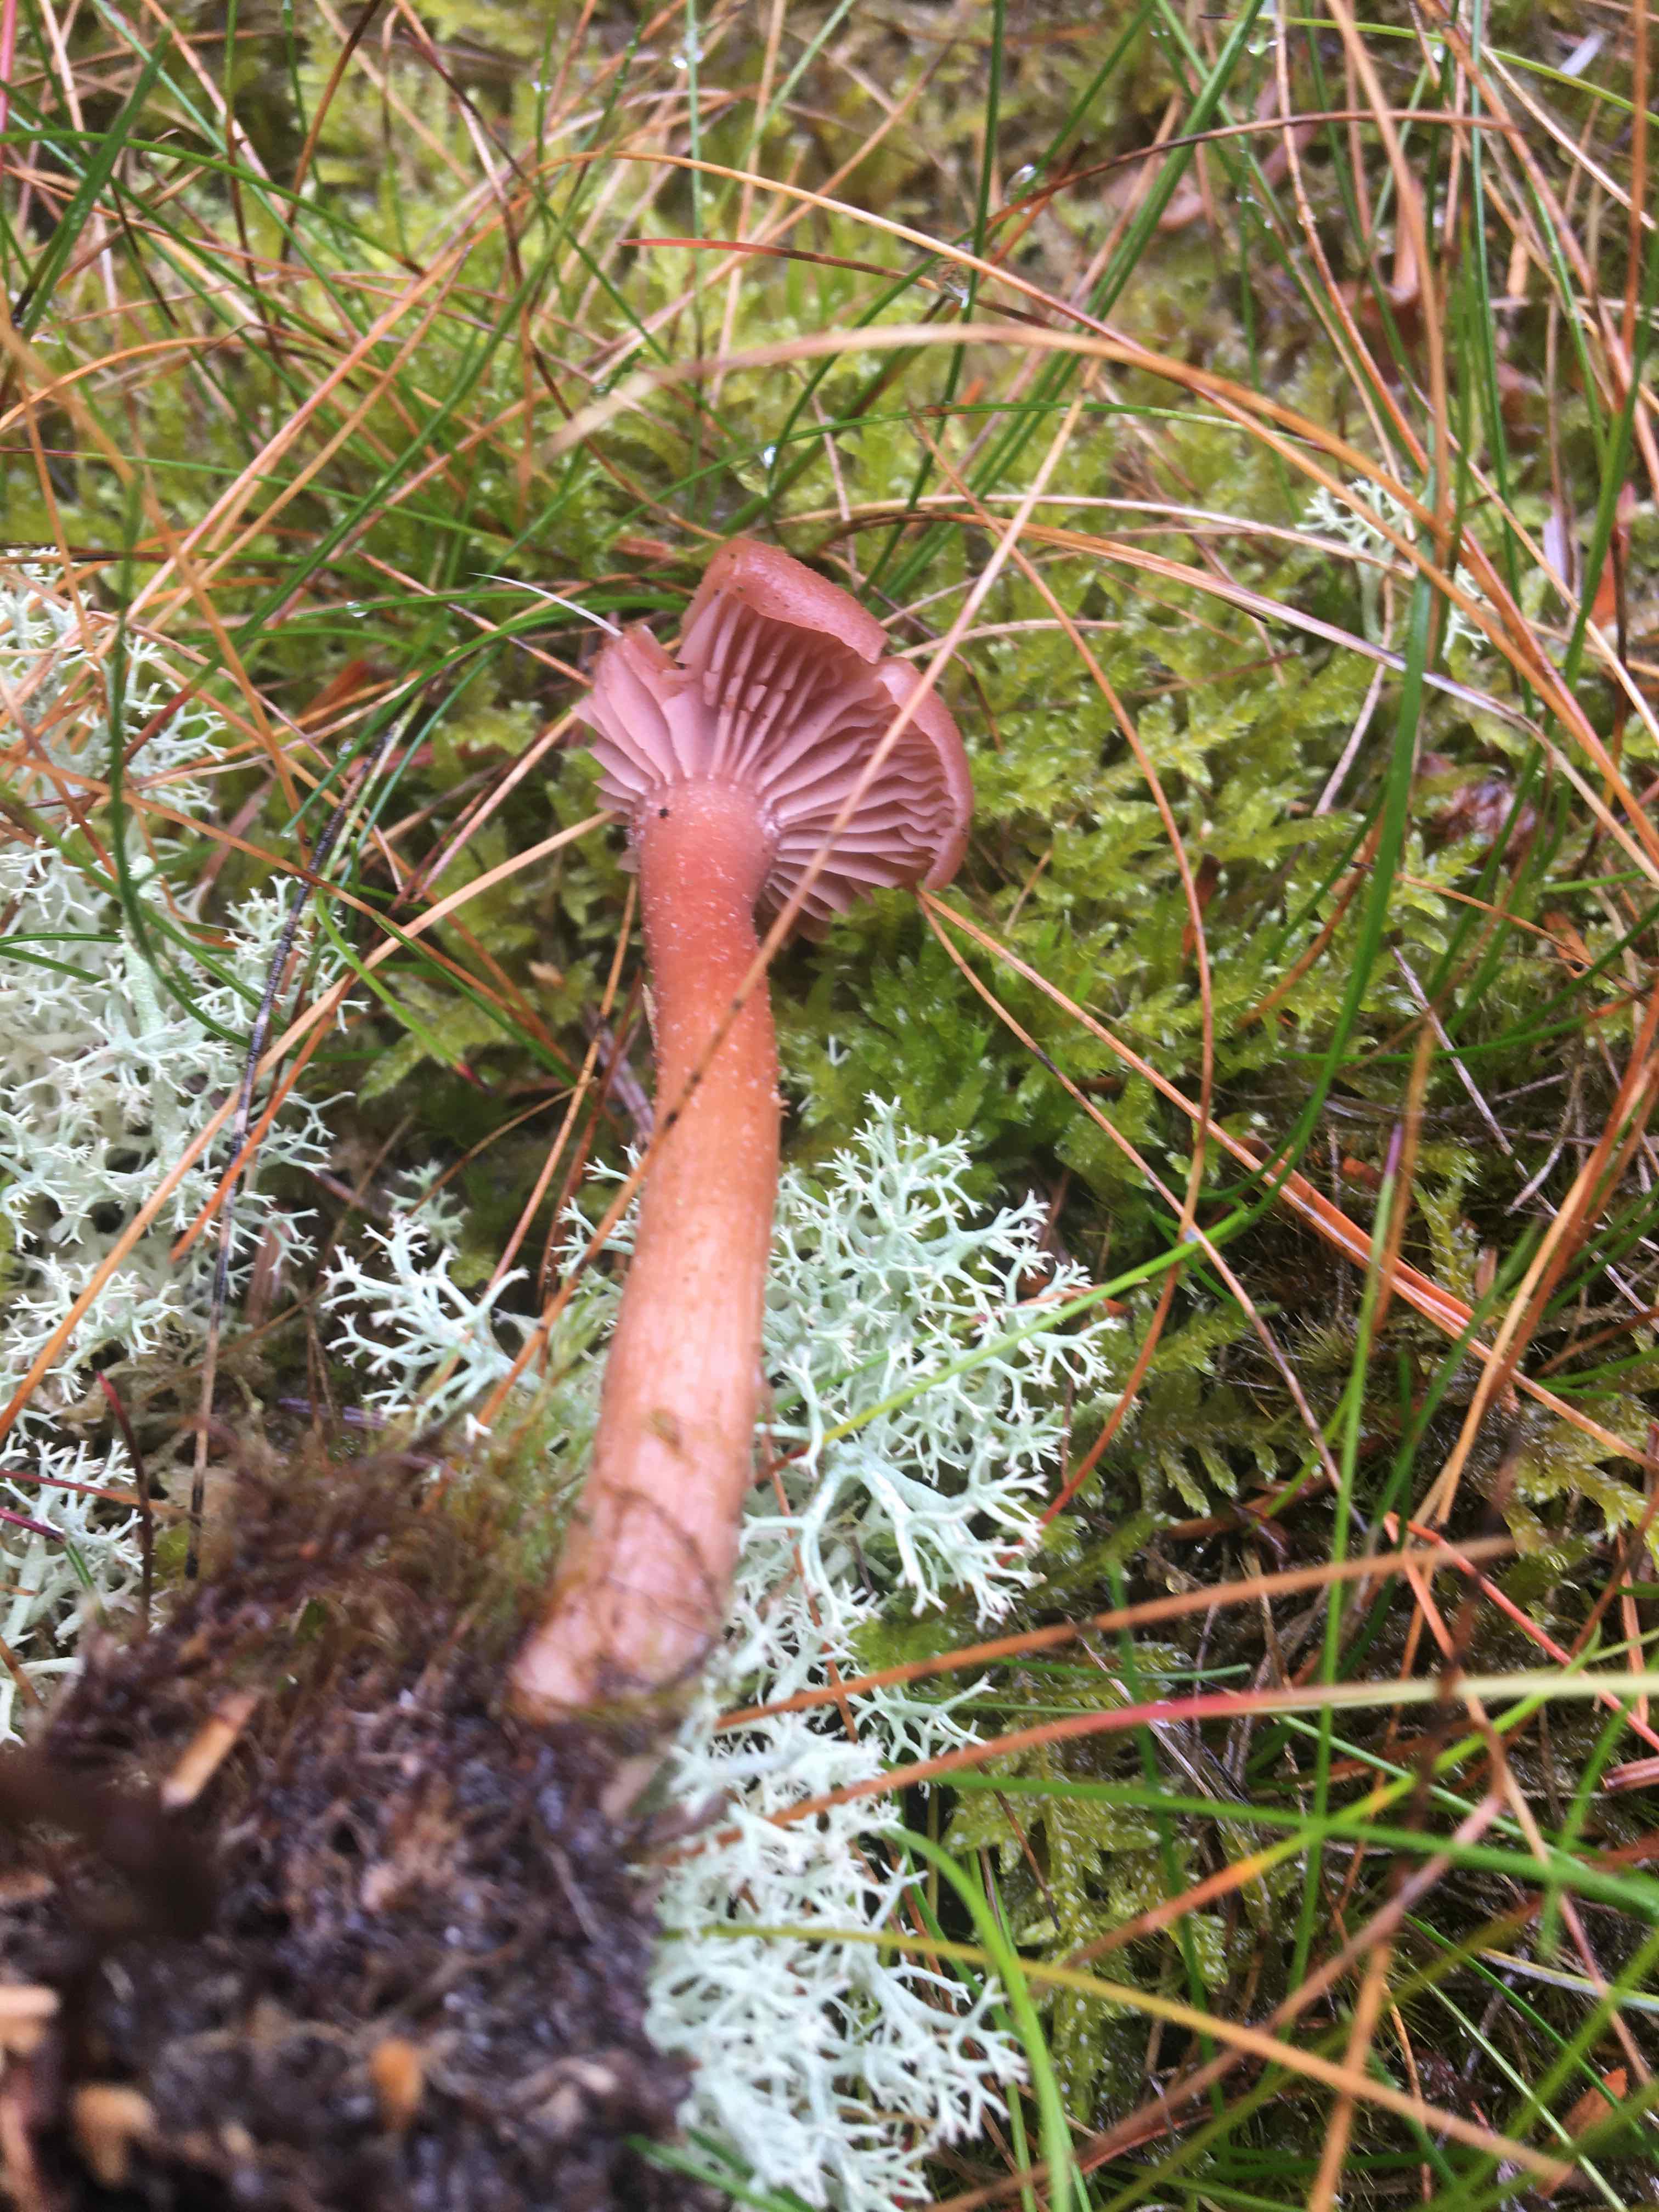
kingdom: Fungi
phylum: Basidiomycota
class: Agaricomycetes
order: Agaricales
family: Hydnangiaceae
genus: Laccaria
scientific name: Laccaria laccata
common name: rød ametysthat
